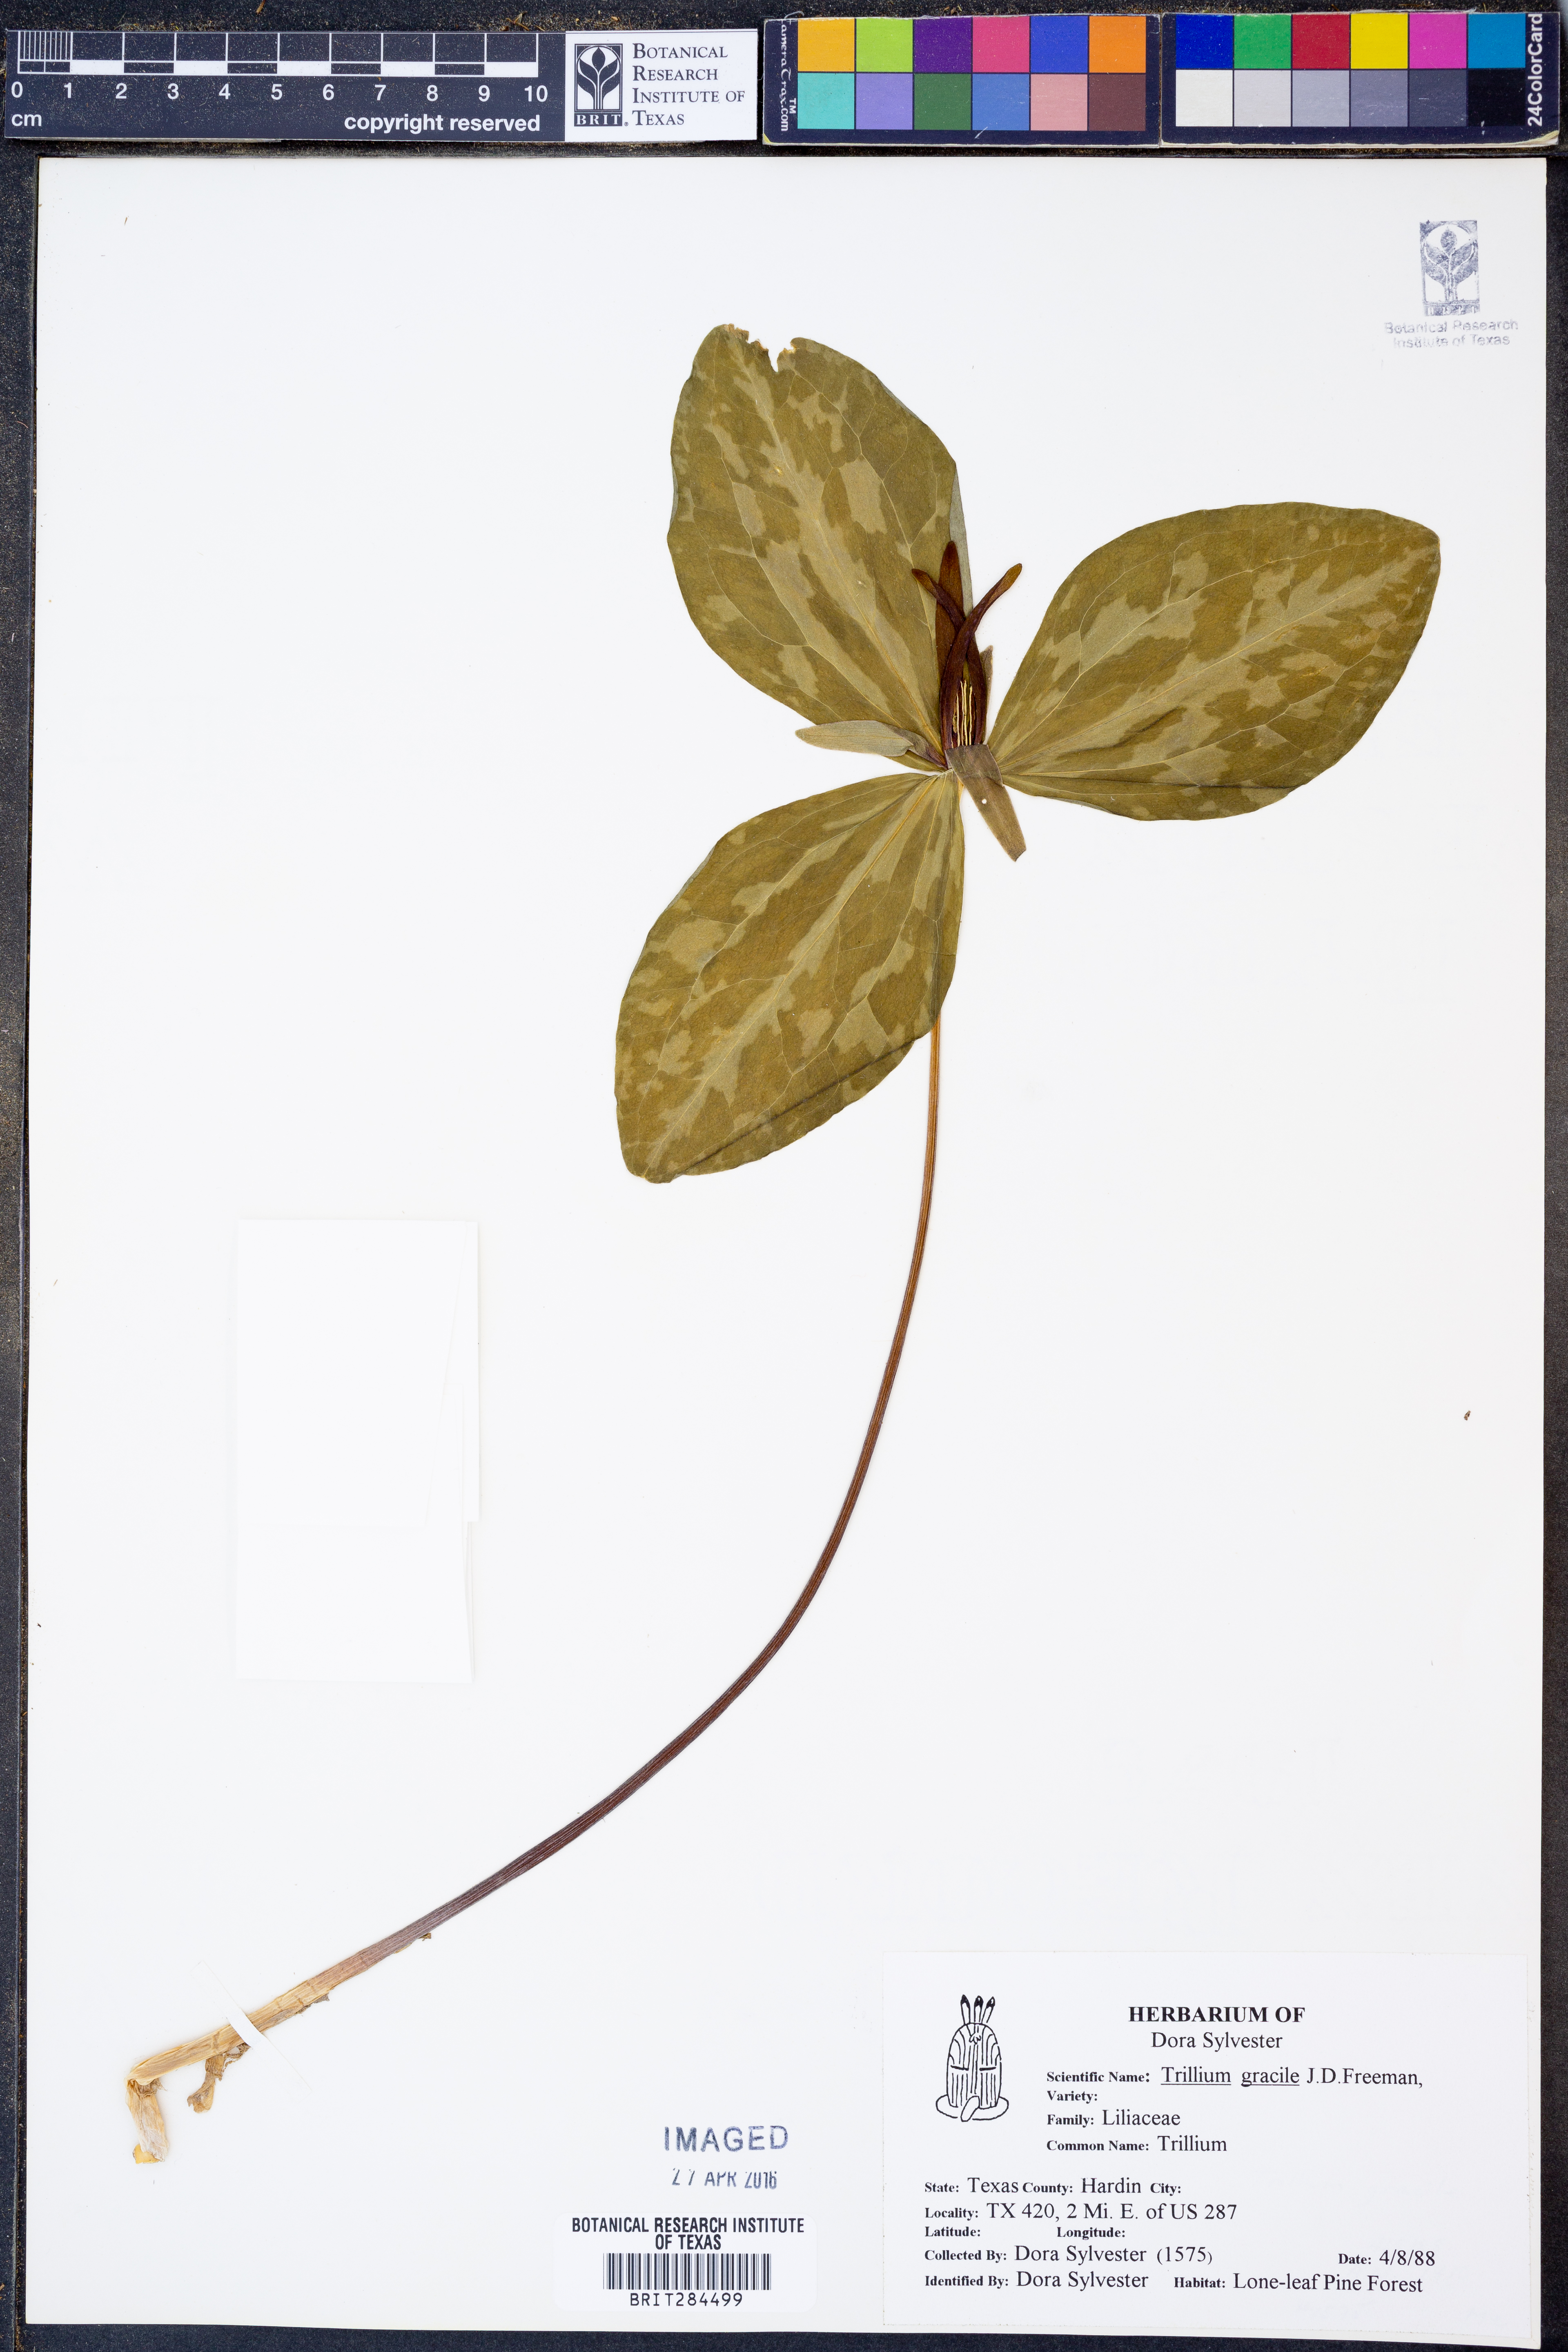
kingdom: Plantae
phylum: Tracheophyta
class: Liliopsida
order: Liliales
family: Melanthiaceae
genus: Trillium
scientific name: Trillium gracile
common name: Graceful trillium
